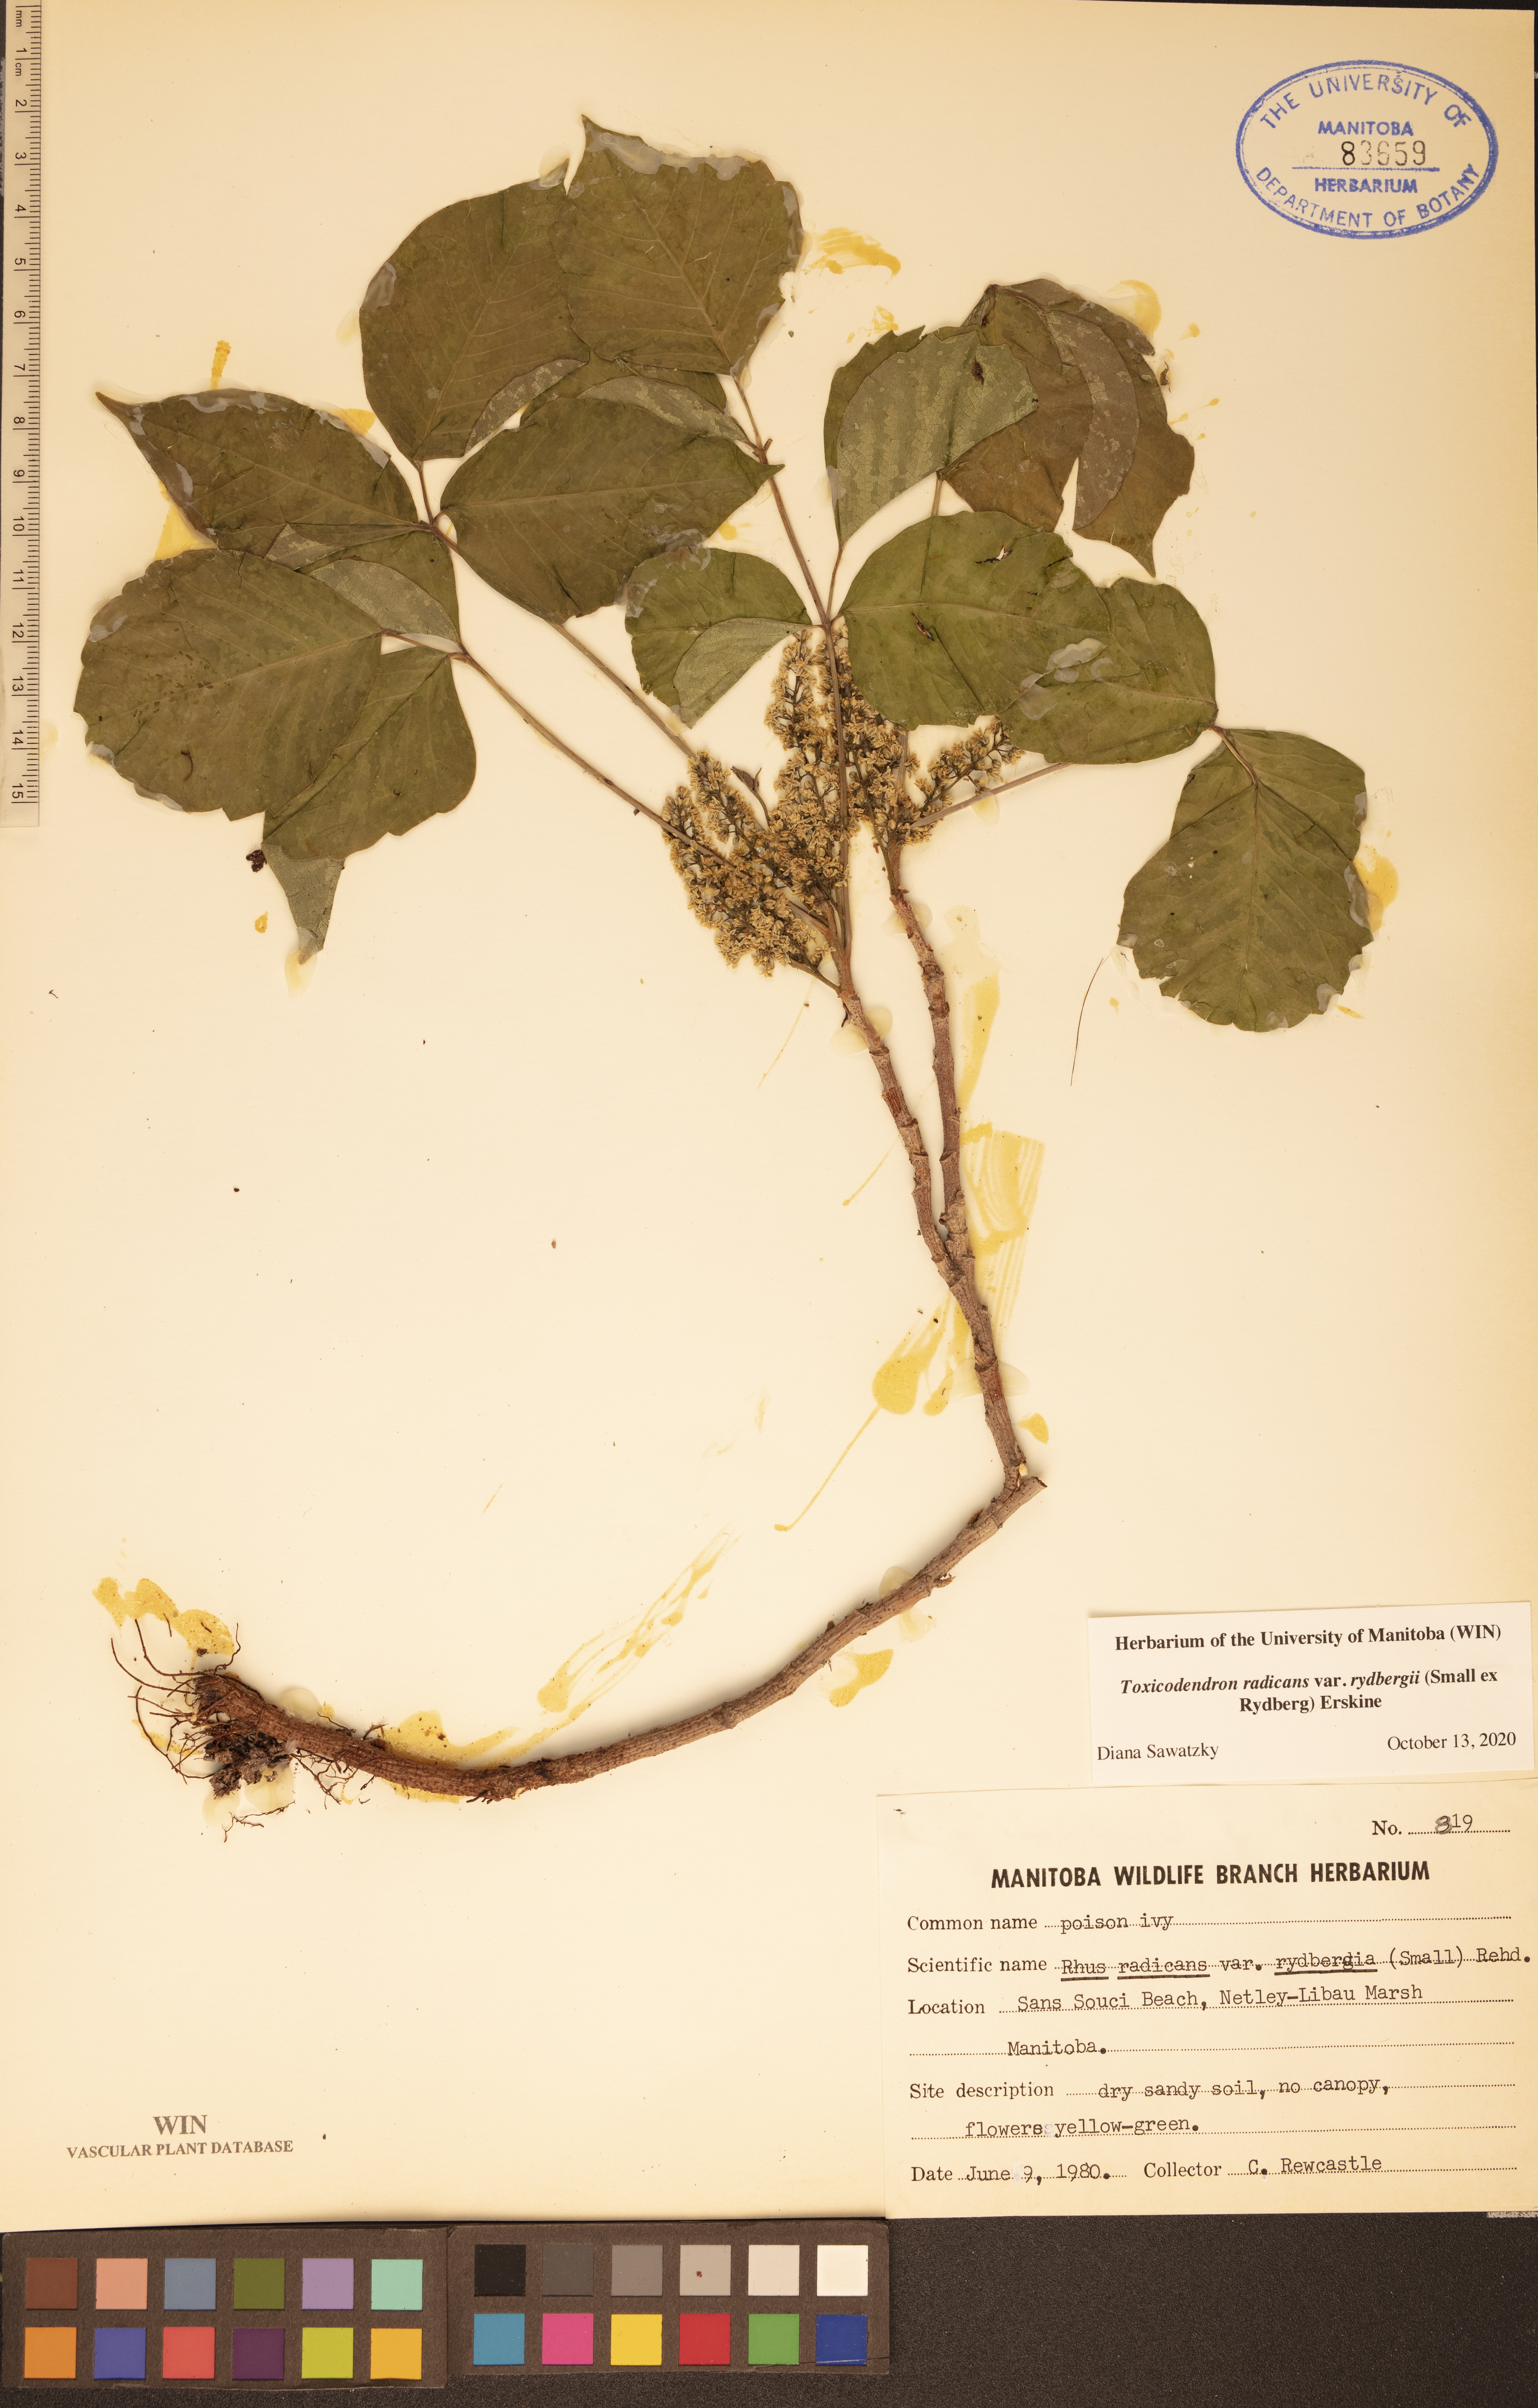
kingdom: Plantae
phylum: Tracheophyta
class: Magnoliopsida
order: Sapindales
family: Anacardiaceae
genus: Toxicodendron
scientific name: Toxicodendron rydbergii
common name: Rydberg's poison-ivy
